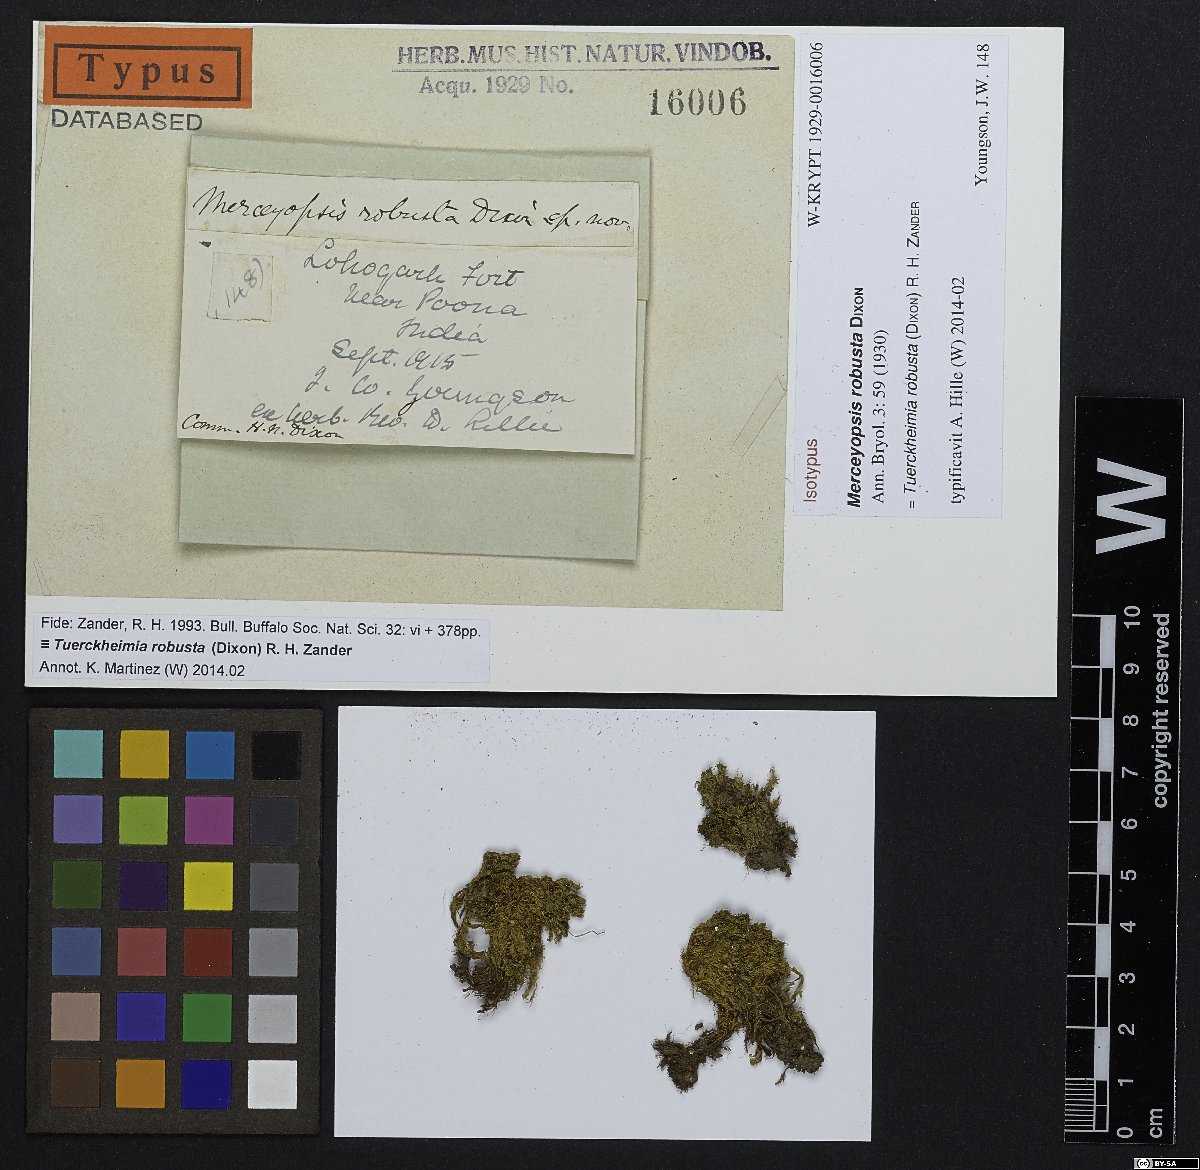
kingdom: Plantae
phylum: Bryophyta
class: Bryopsida
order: Pottiales
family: Pottiaceae
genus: Hymenostylium
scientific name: Hymenostylium xanthocarpum
